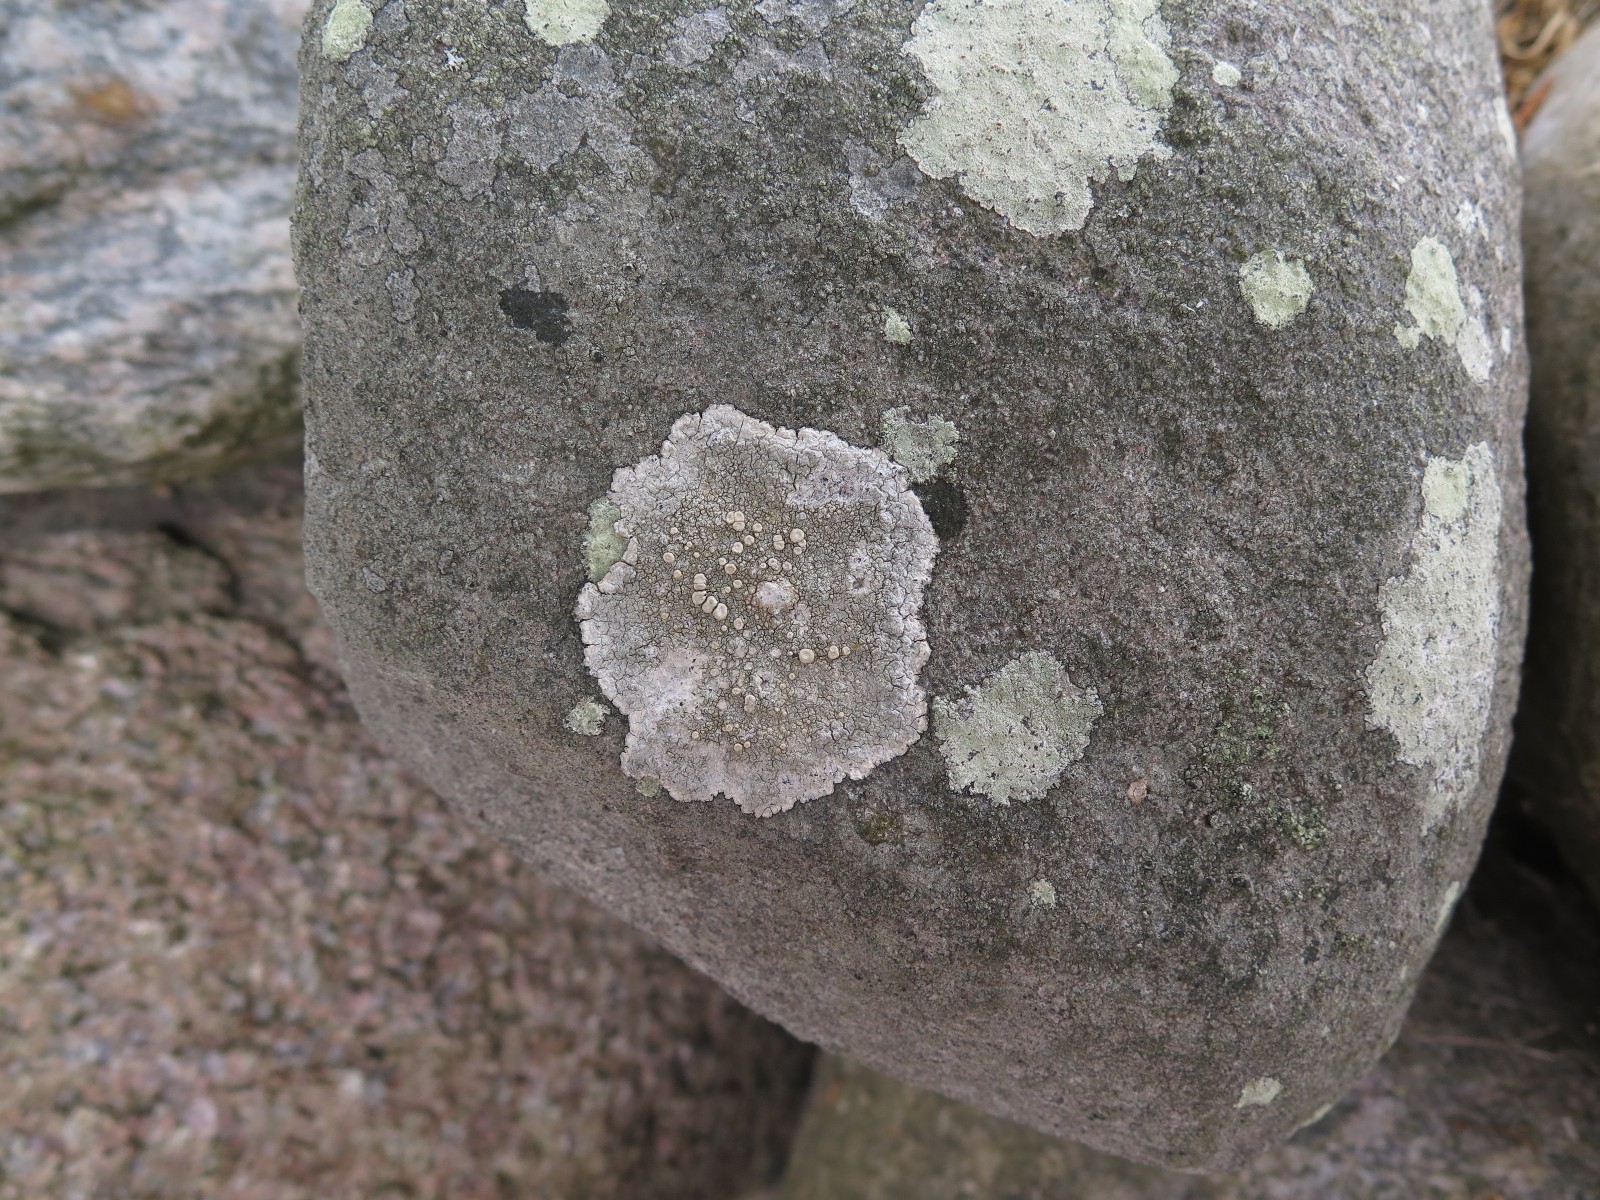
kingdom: Fungi
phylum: Ascomycota
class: Lecanoromycetes
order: Pertusariales
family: Ochrolechiaceae
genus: Ochrolechia
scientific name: Ochrolechia parella
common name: almindelig blegskivelav
